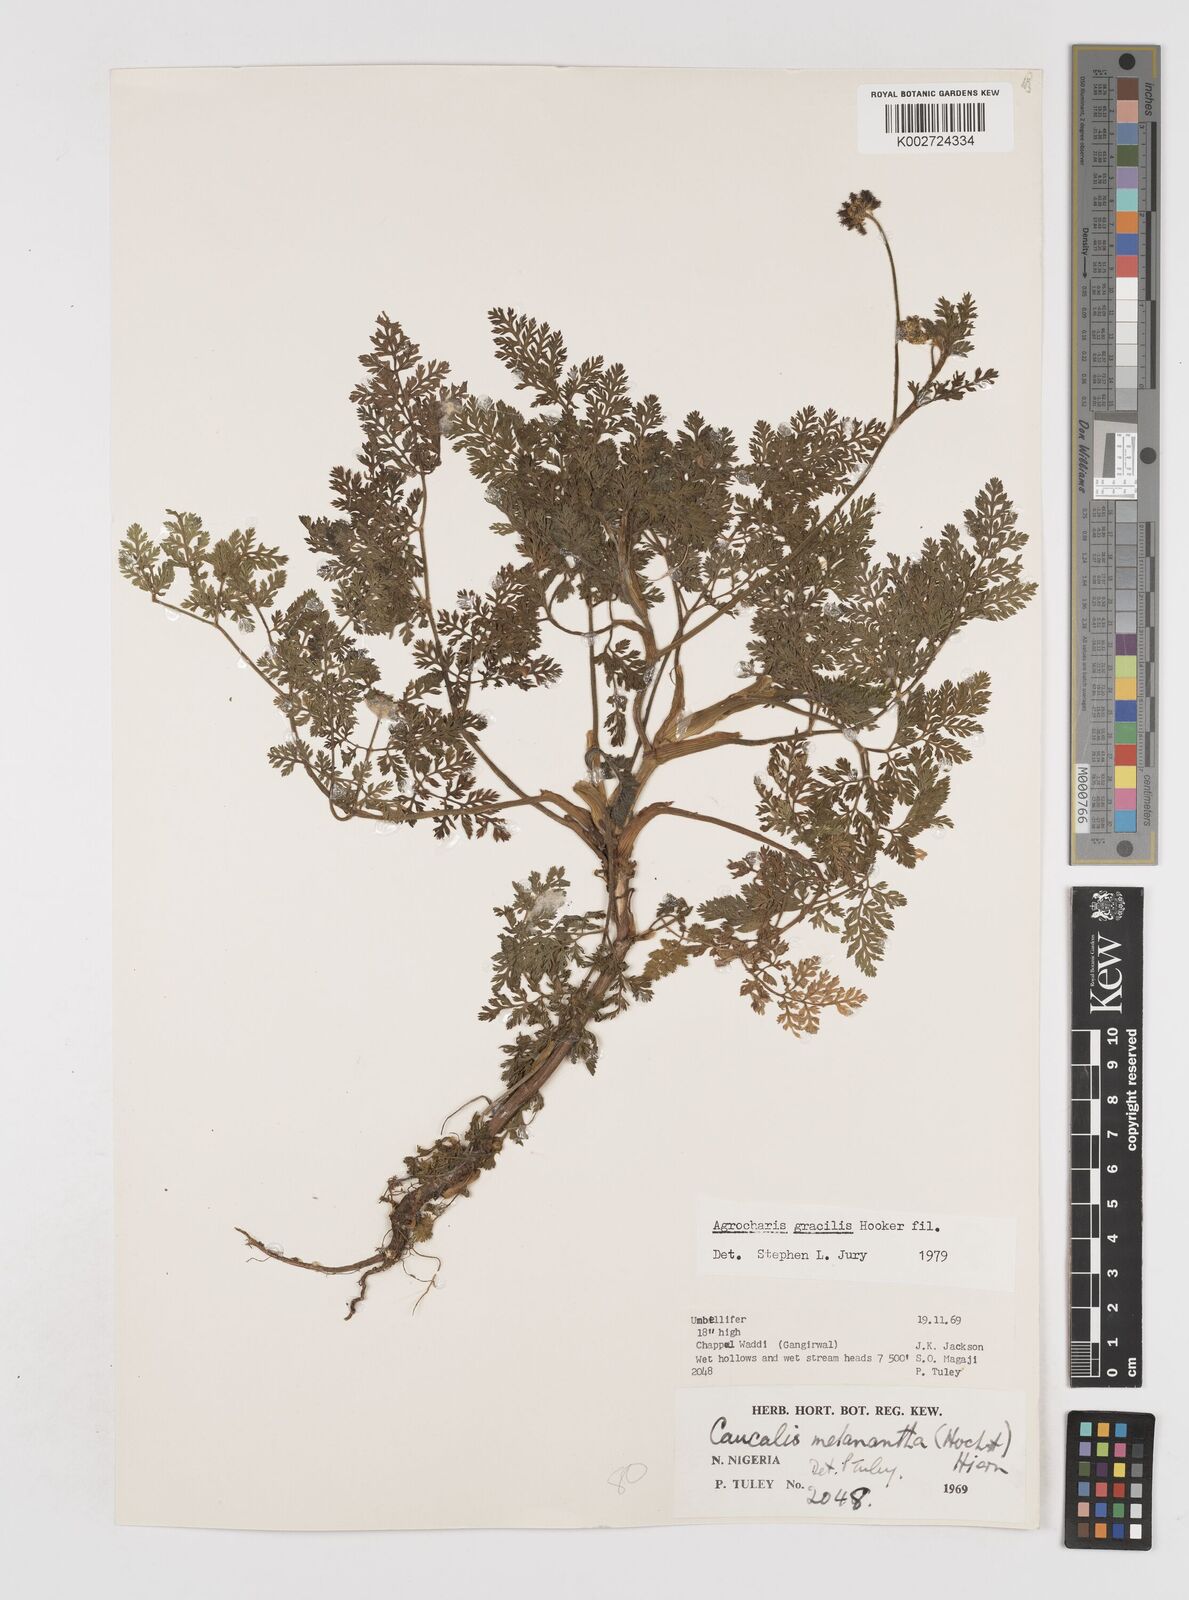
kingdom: Plantae
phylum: Tracheophyta
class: Magnoliopsida
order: Apiales
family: Apiaceae
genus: Daucus
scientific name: Daucus
